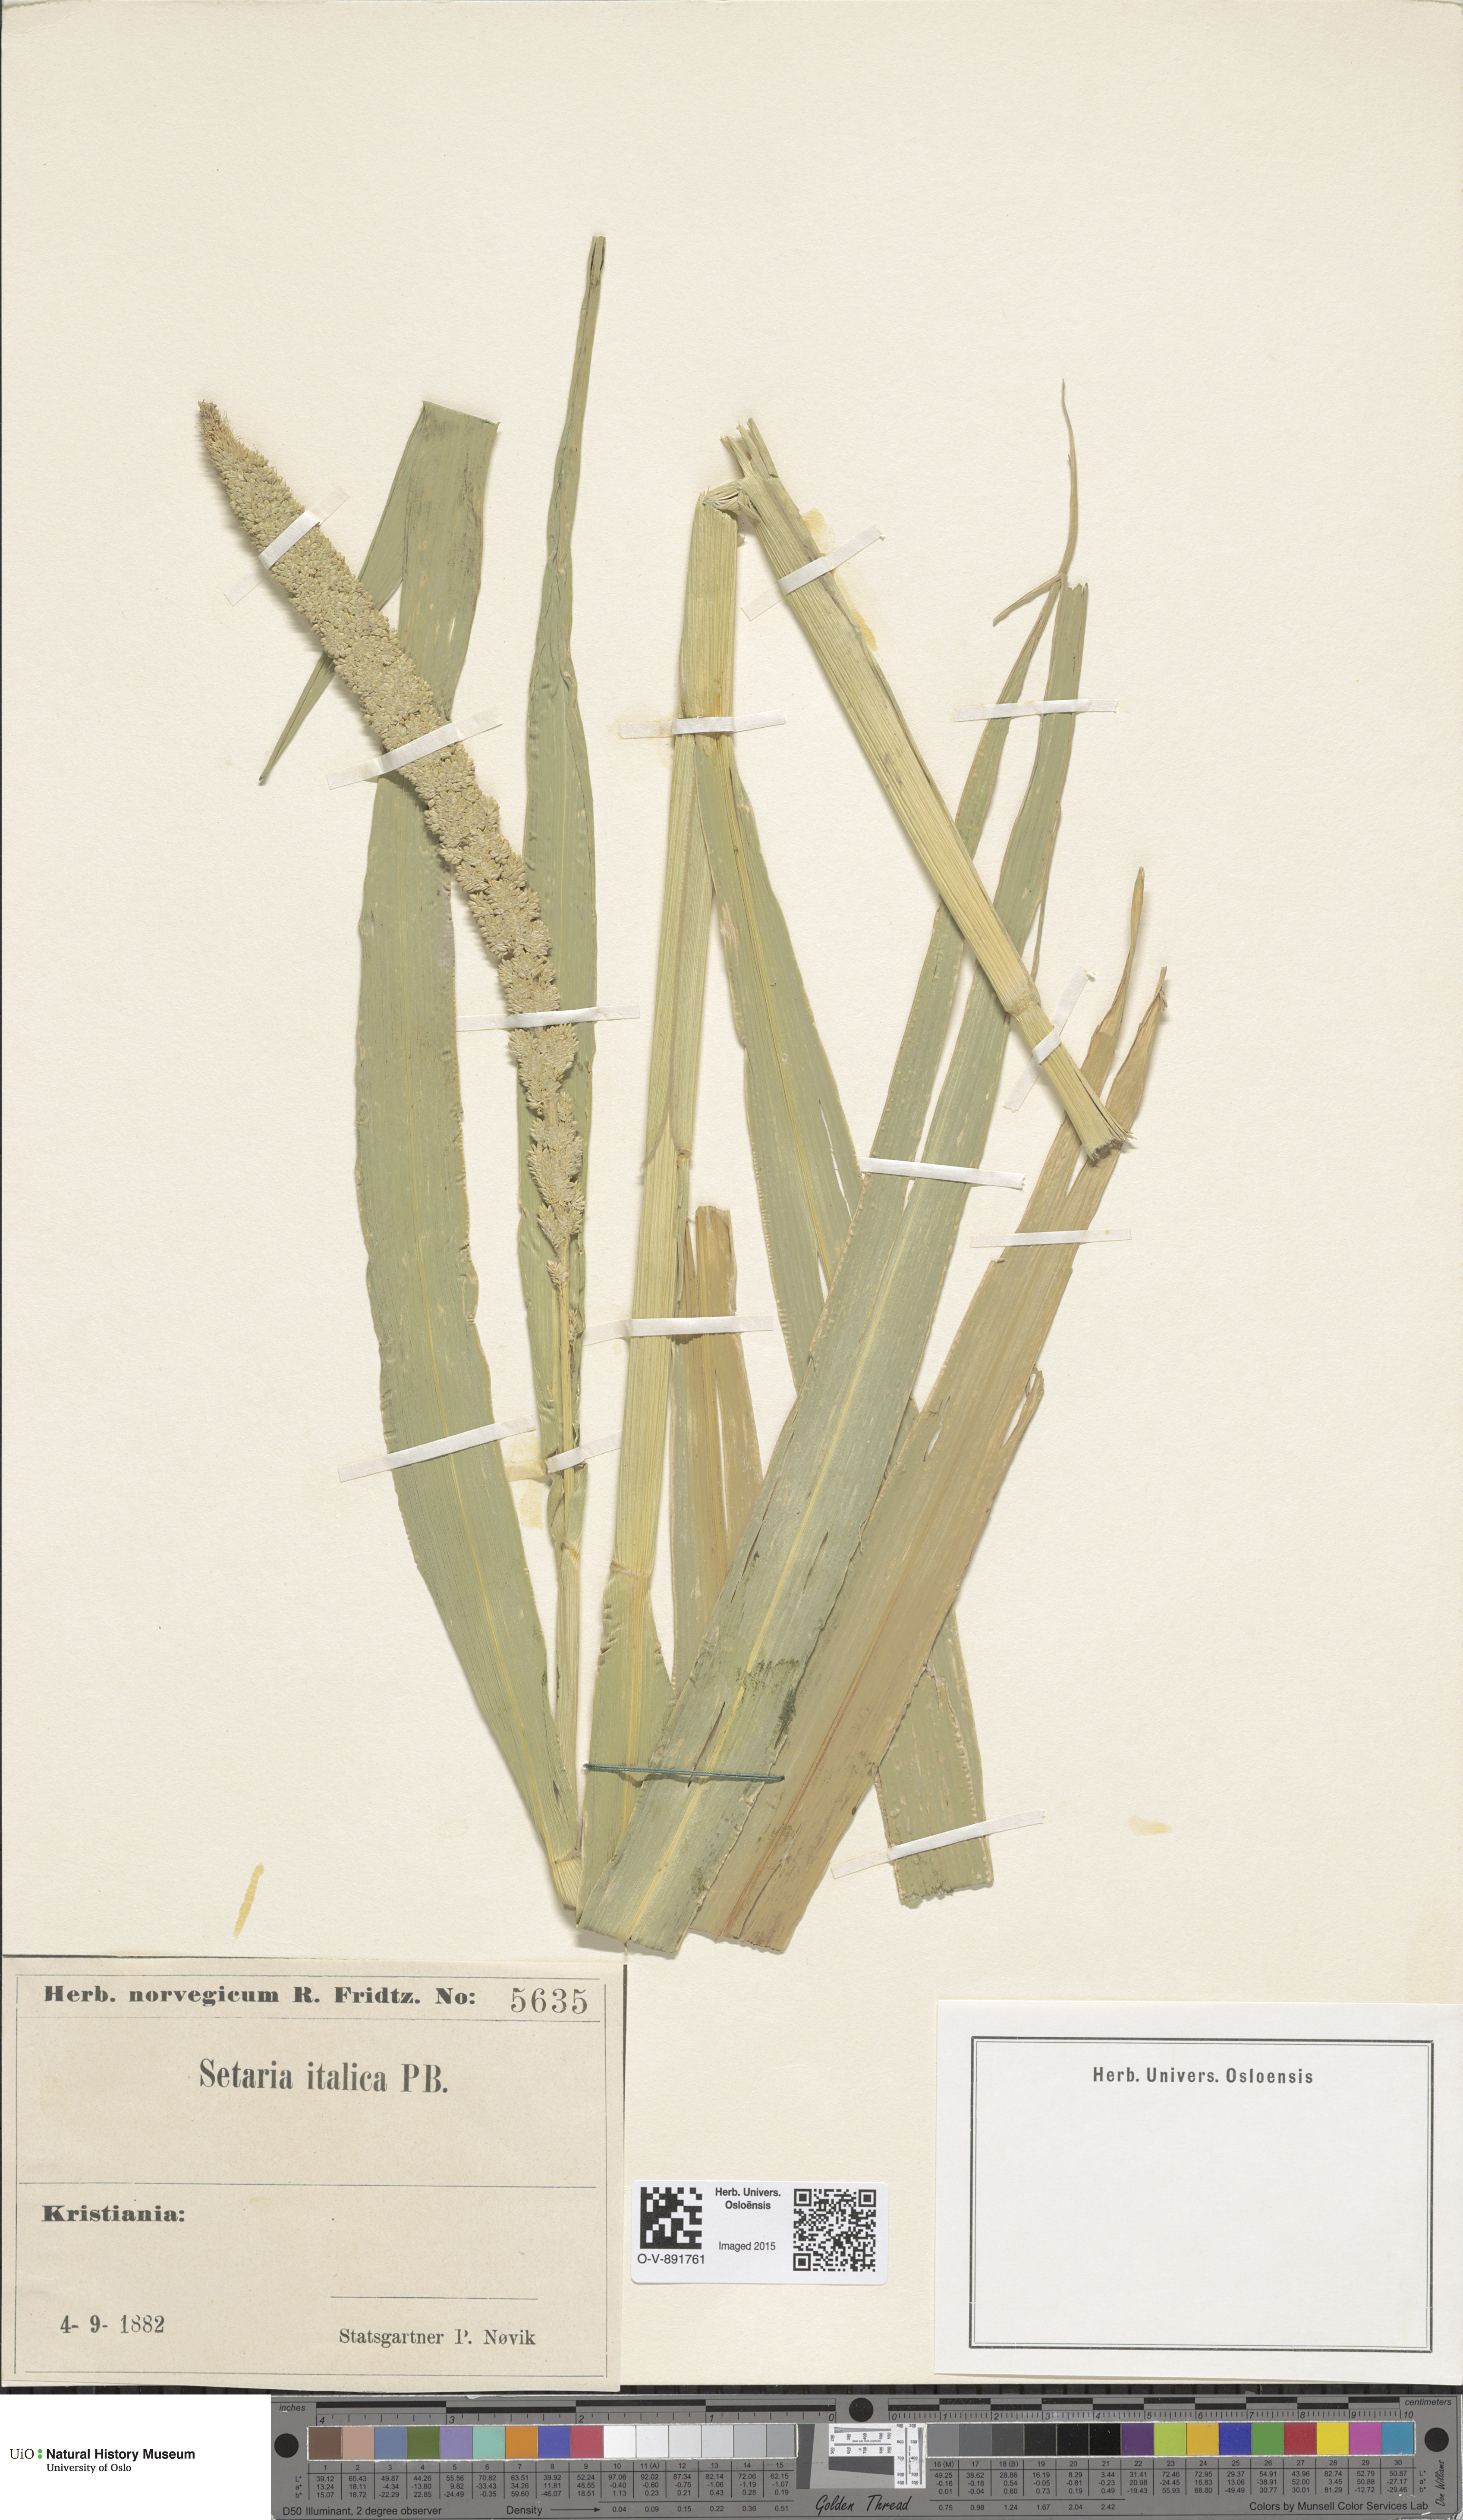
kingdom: Plantae
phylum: Tracheophyta
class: Liliopsida
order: Poales
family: Poaceae
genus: Setaria
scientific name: Setaria italica
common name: Foxtail bristle-grass
